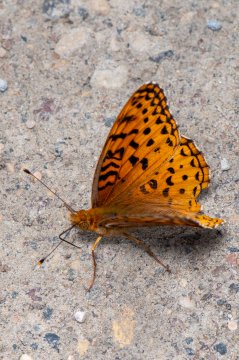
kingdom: Animalia
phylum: Arthropoda
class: Insecta
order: Lepidoptera
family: Nymphalidae
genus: Speyeria
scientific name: Speyeria aphrodite
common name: Aphrodite Fritillary
